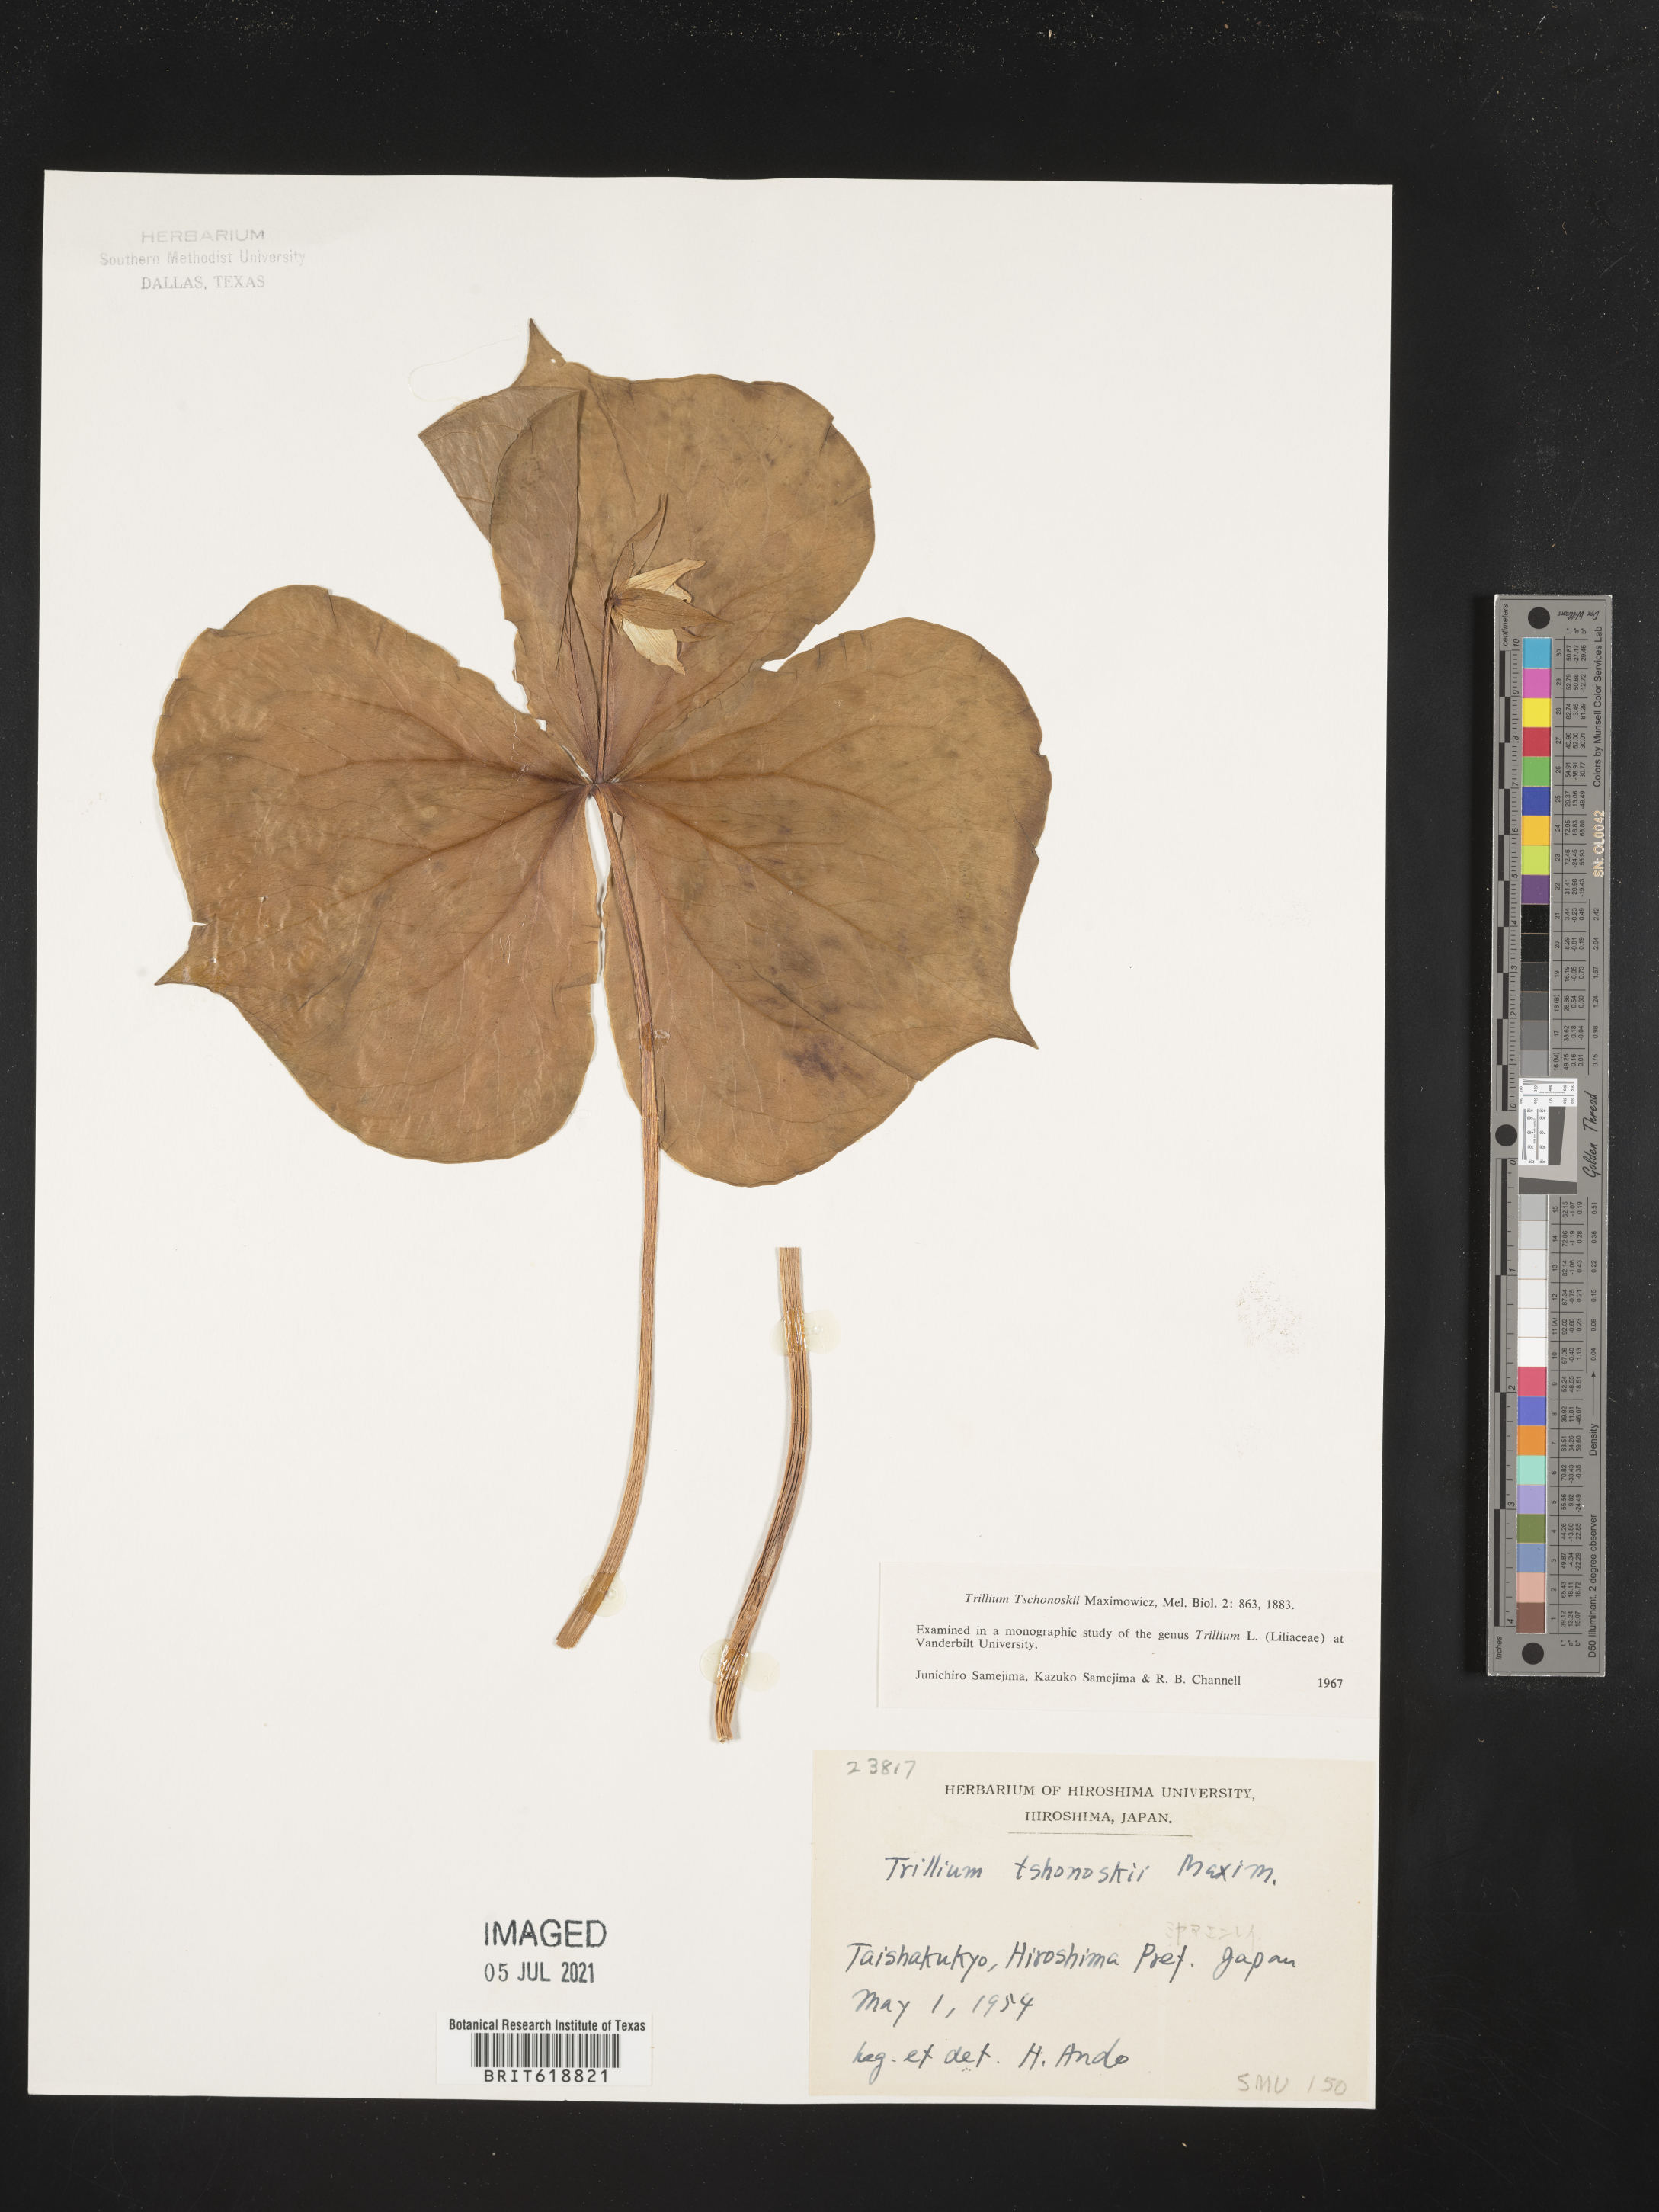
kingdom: Plantae
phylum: Tracheophyta
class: Liliopsida
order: Liliales
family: Melanthiaceae
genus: Trillium
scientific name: Trillium tschonoskii
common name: A pearl on head
